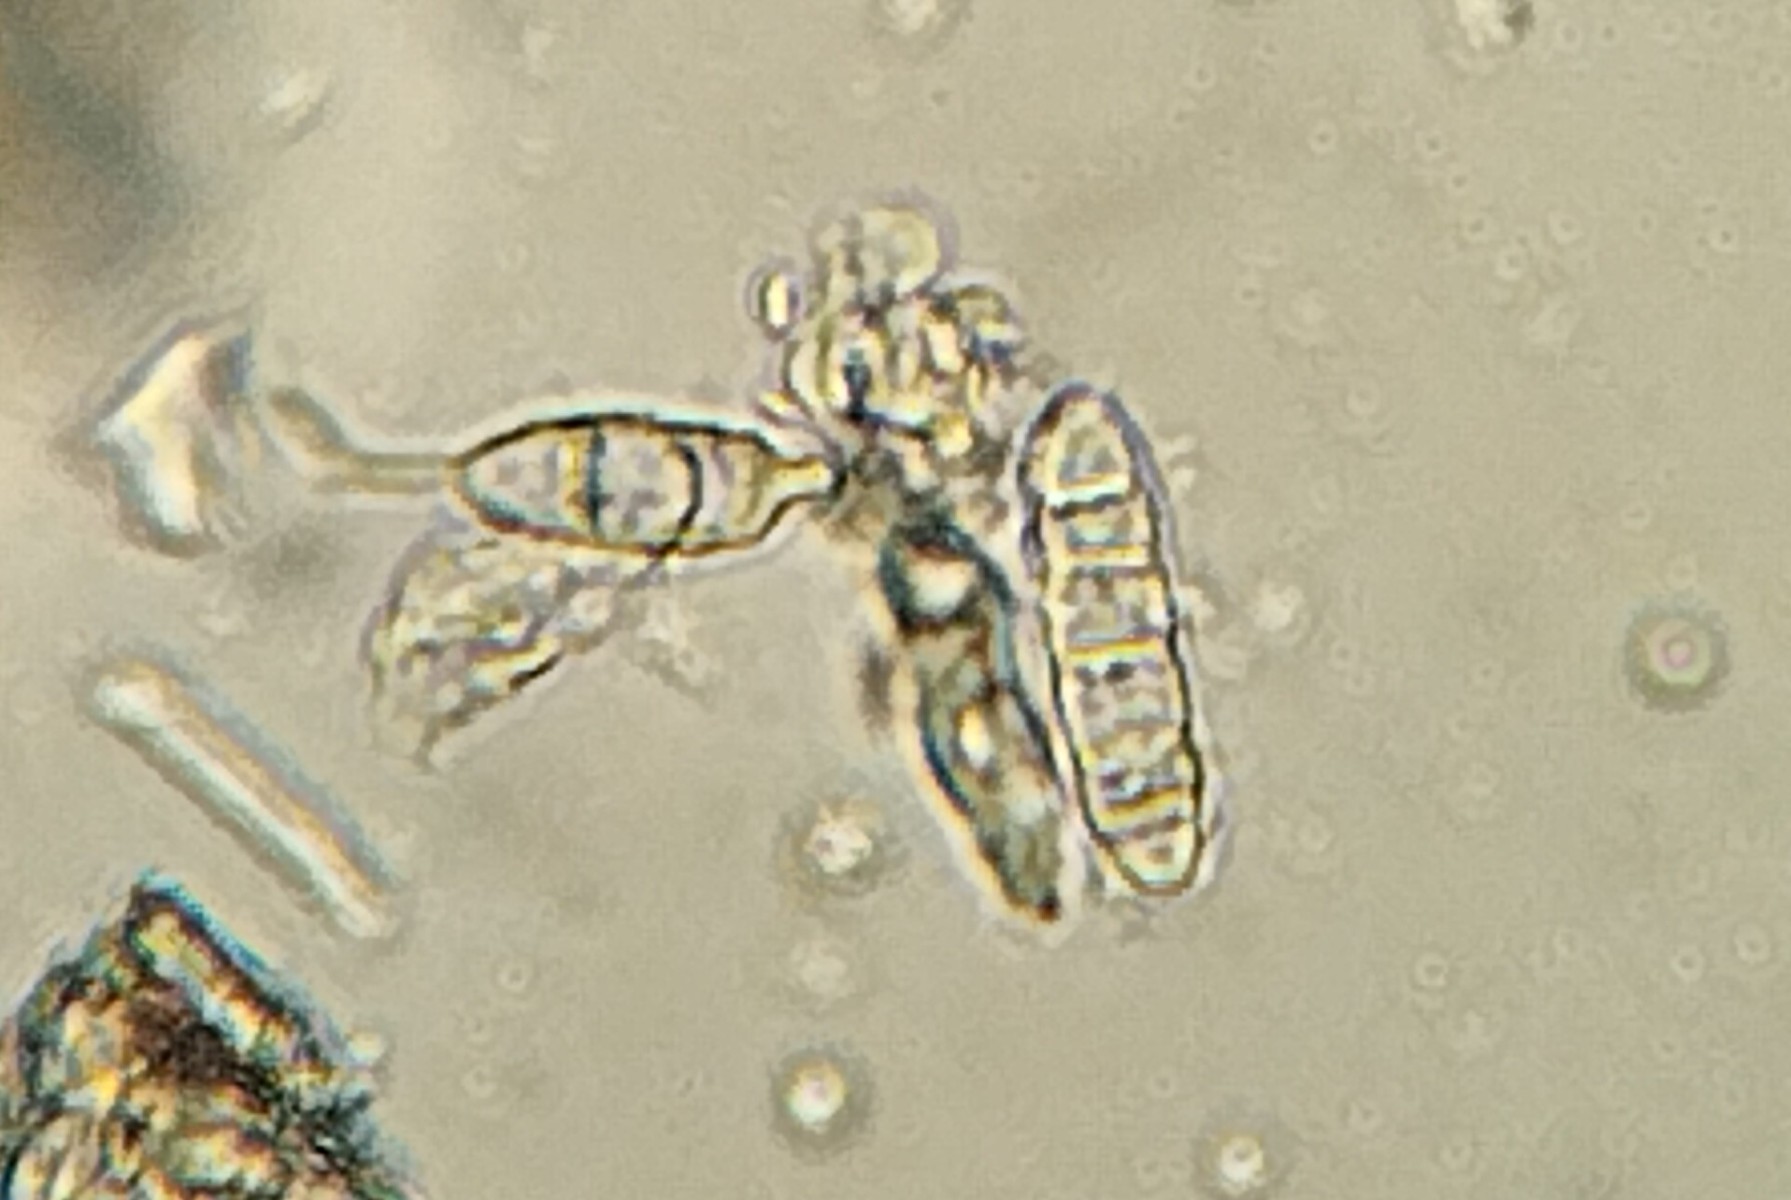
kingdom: Fungi
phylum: Ascomycota
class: Lecanoromycetes
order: Lecanorales
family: Ramalinaceae
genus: Bilimbia
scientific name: Bilimbia sabuletorum
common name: kalk-tensporelav
